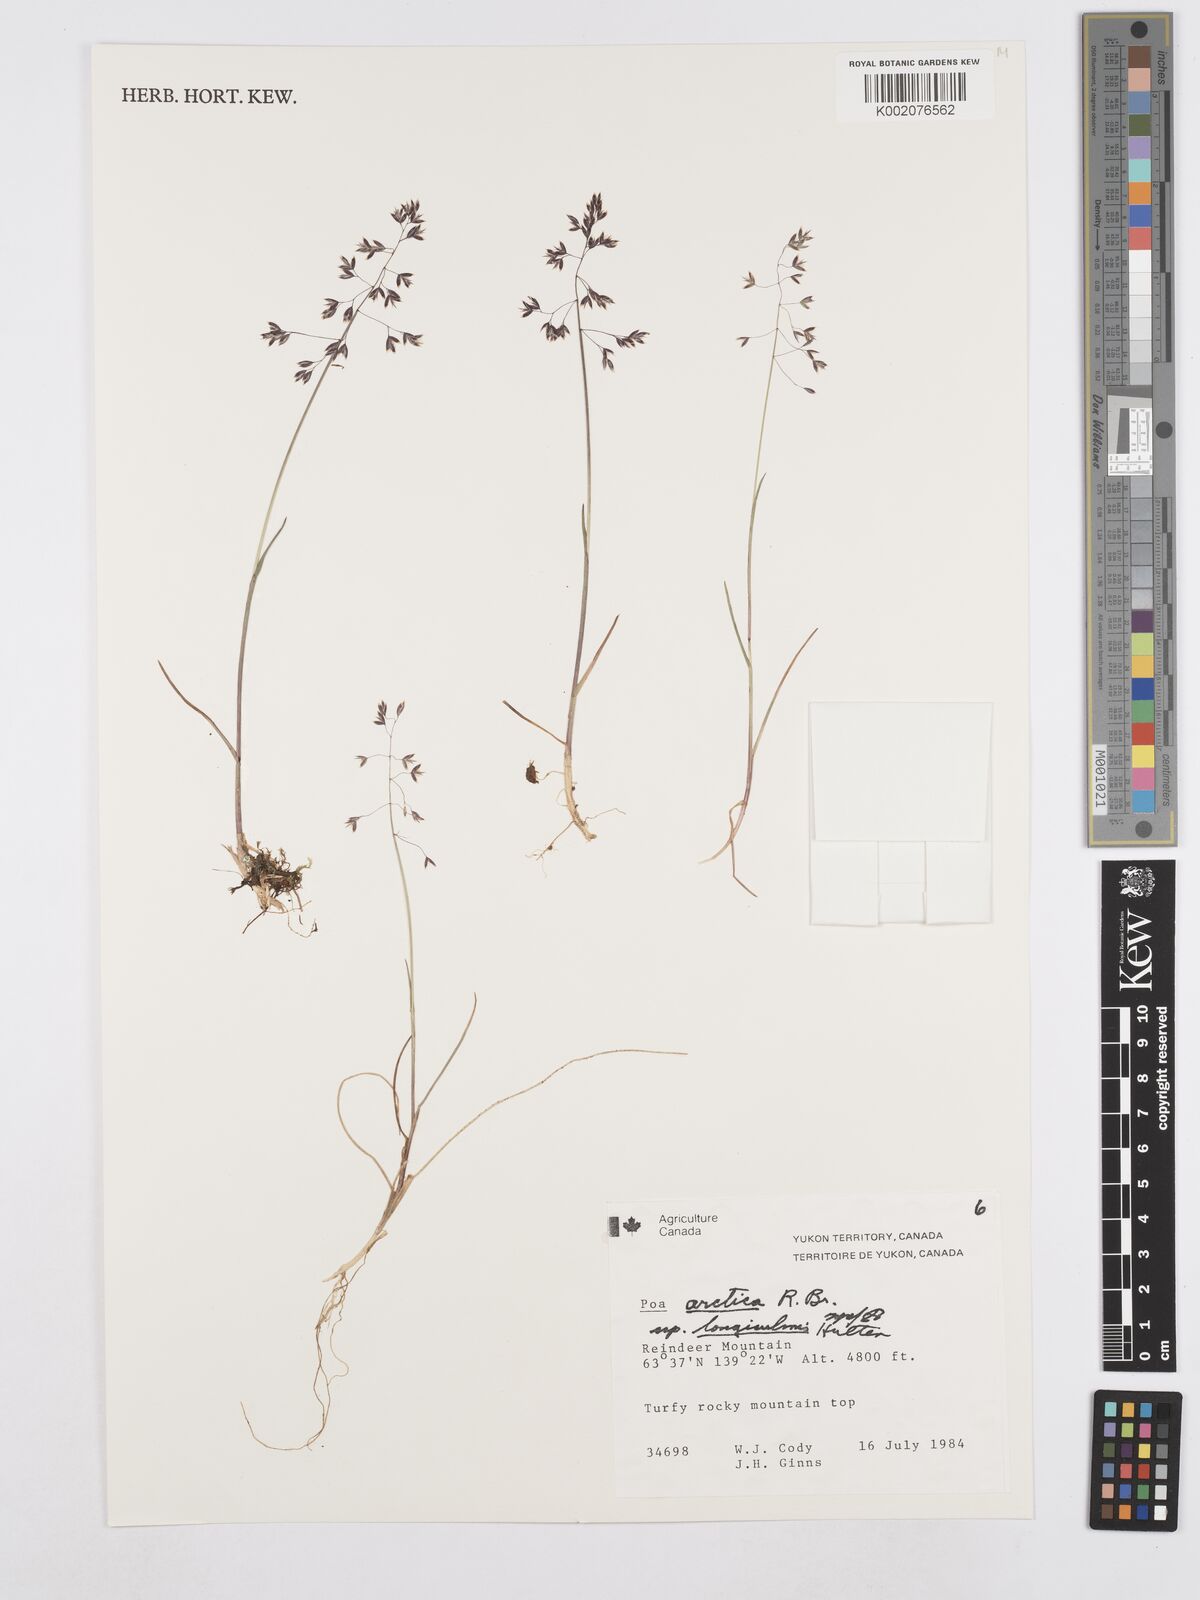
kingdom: Plantae
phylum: Tracheophyta
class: Liliopsida
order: Poales
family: Poaceae
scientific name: Poaceae
